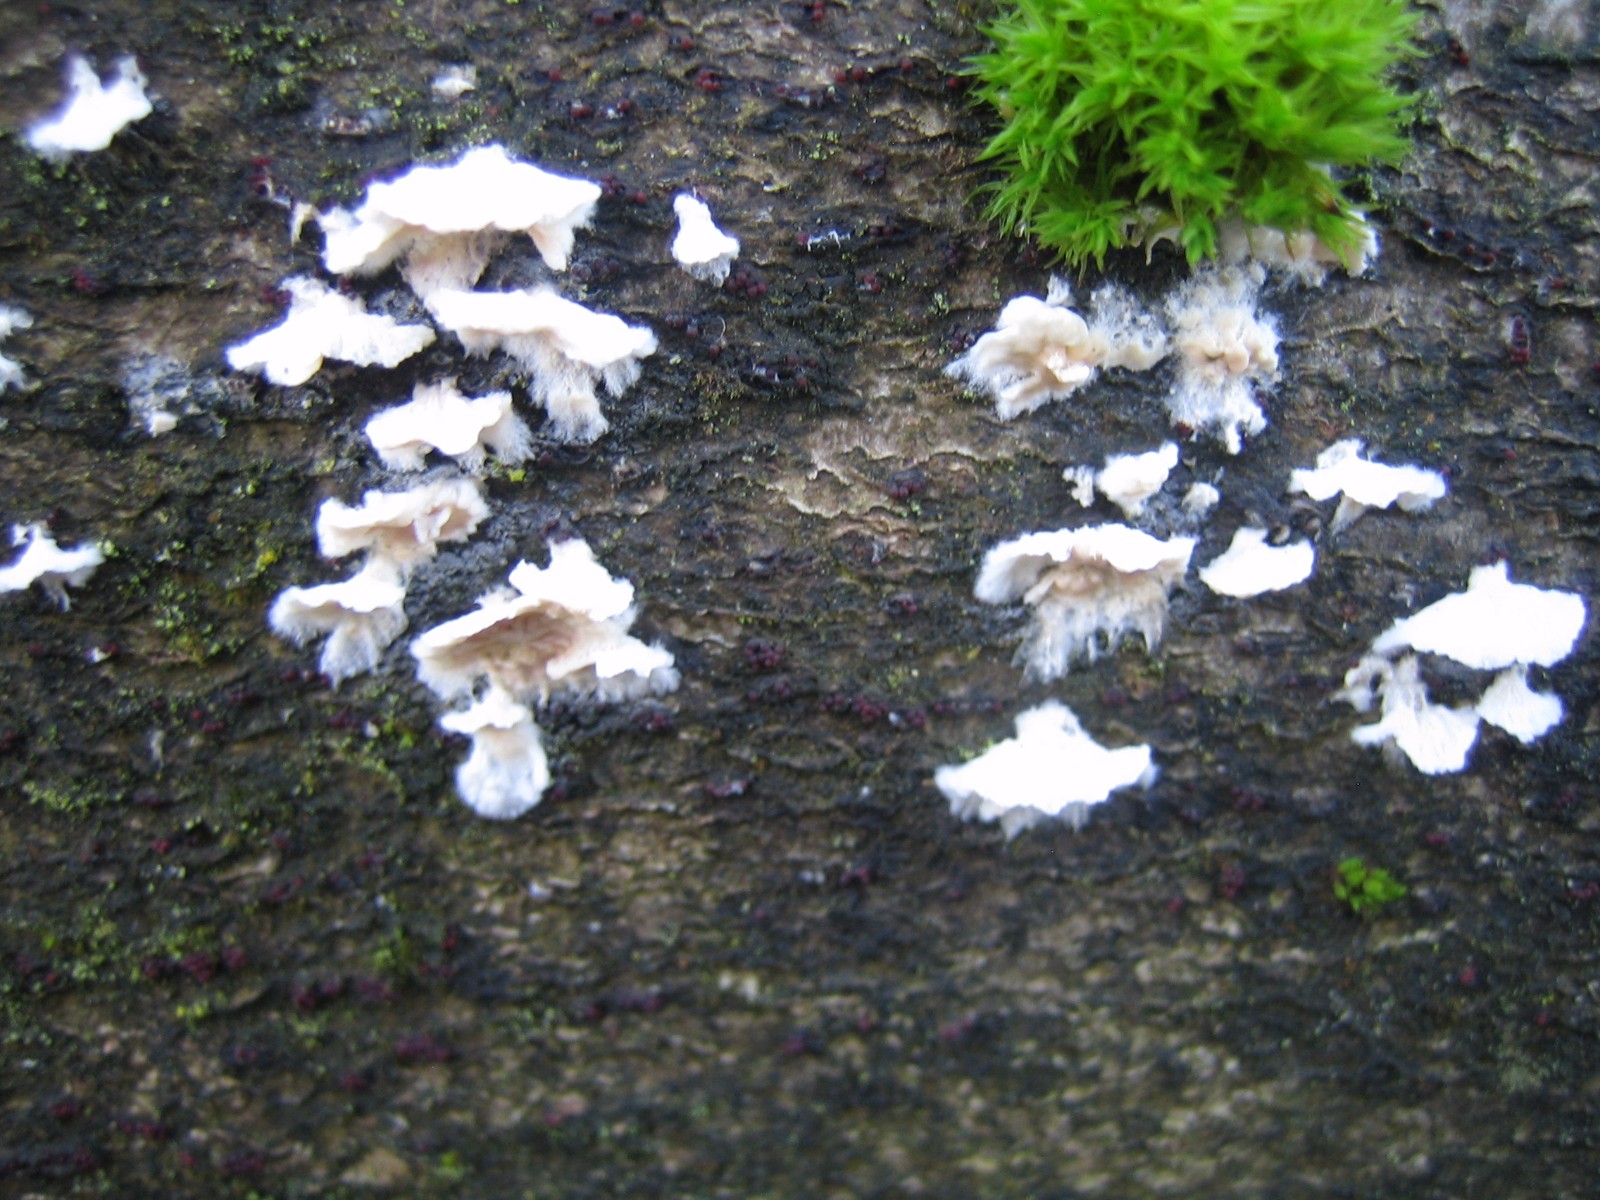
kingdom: Fungi
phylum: Basidiomycota
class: Agaricomycetes
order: Agaricales
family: Physalacriaceae
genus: Cylindrobasidium
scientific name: Cylindrobasidium evolvens
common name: sprækkehinde
